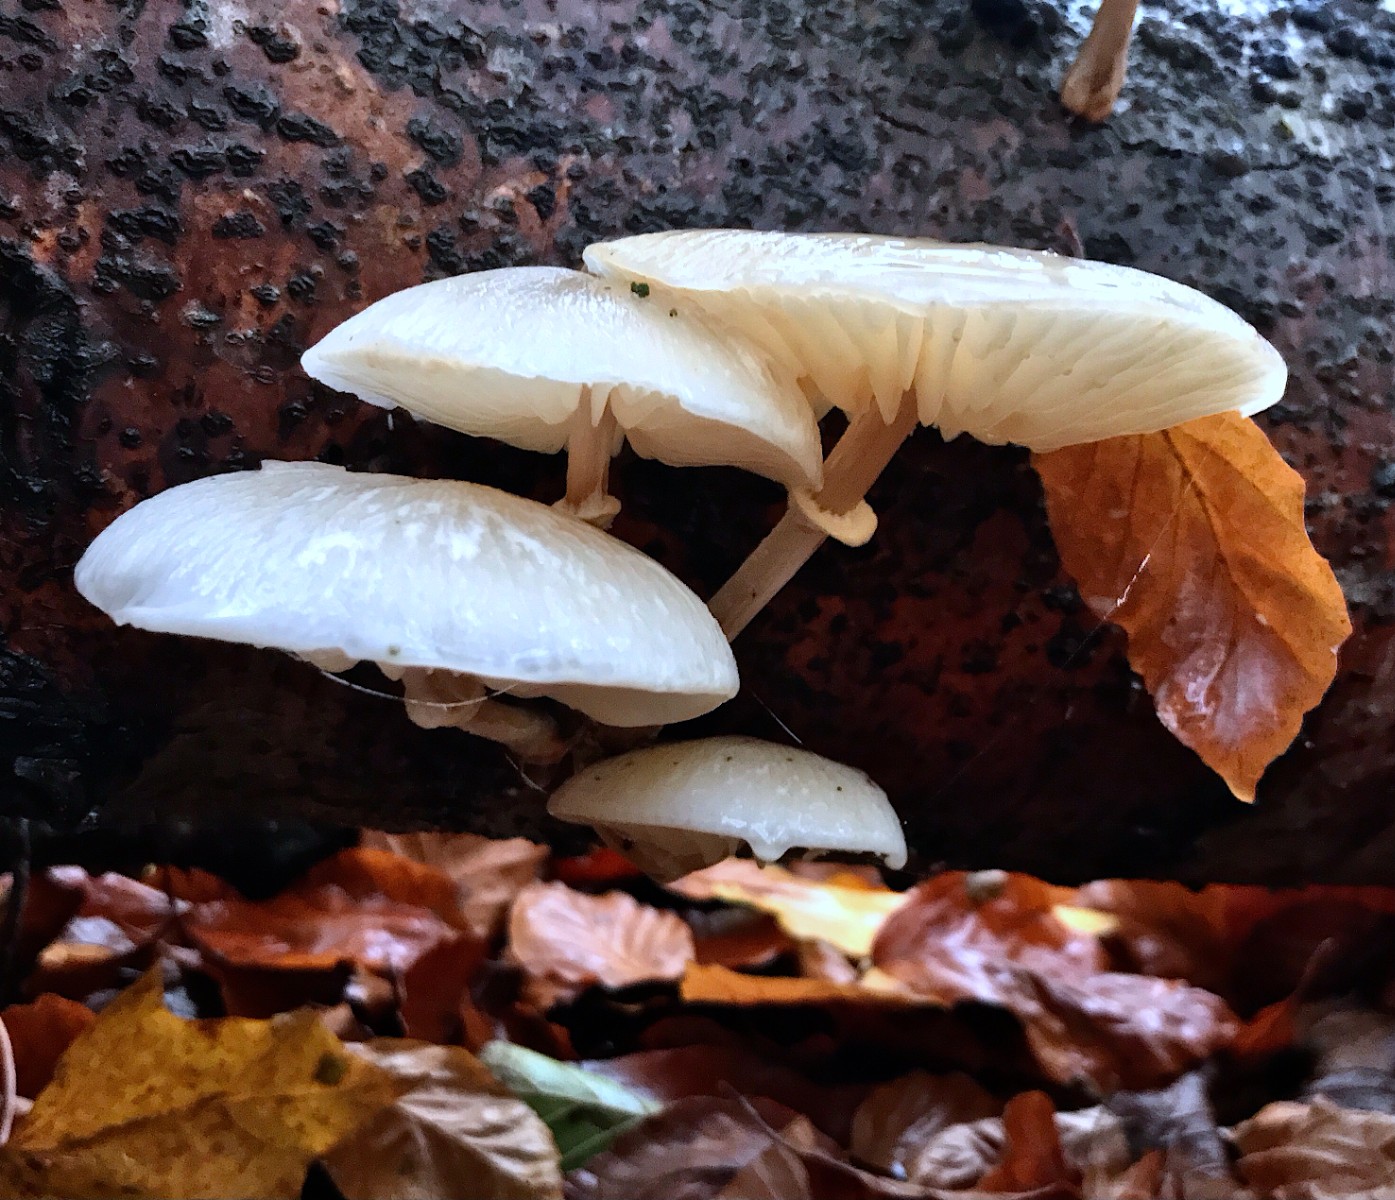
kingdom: Fungi
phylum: Basidiomycota
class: Agaricomycetes
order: Agaricales
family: Physalacriaceae
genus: Mucidula
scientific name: Mucidula mucida
